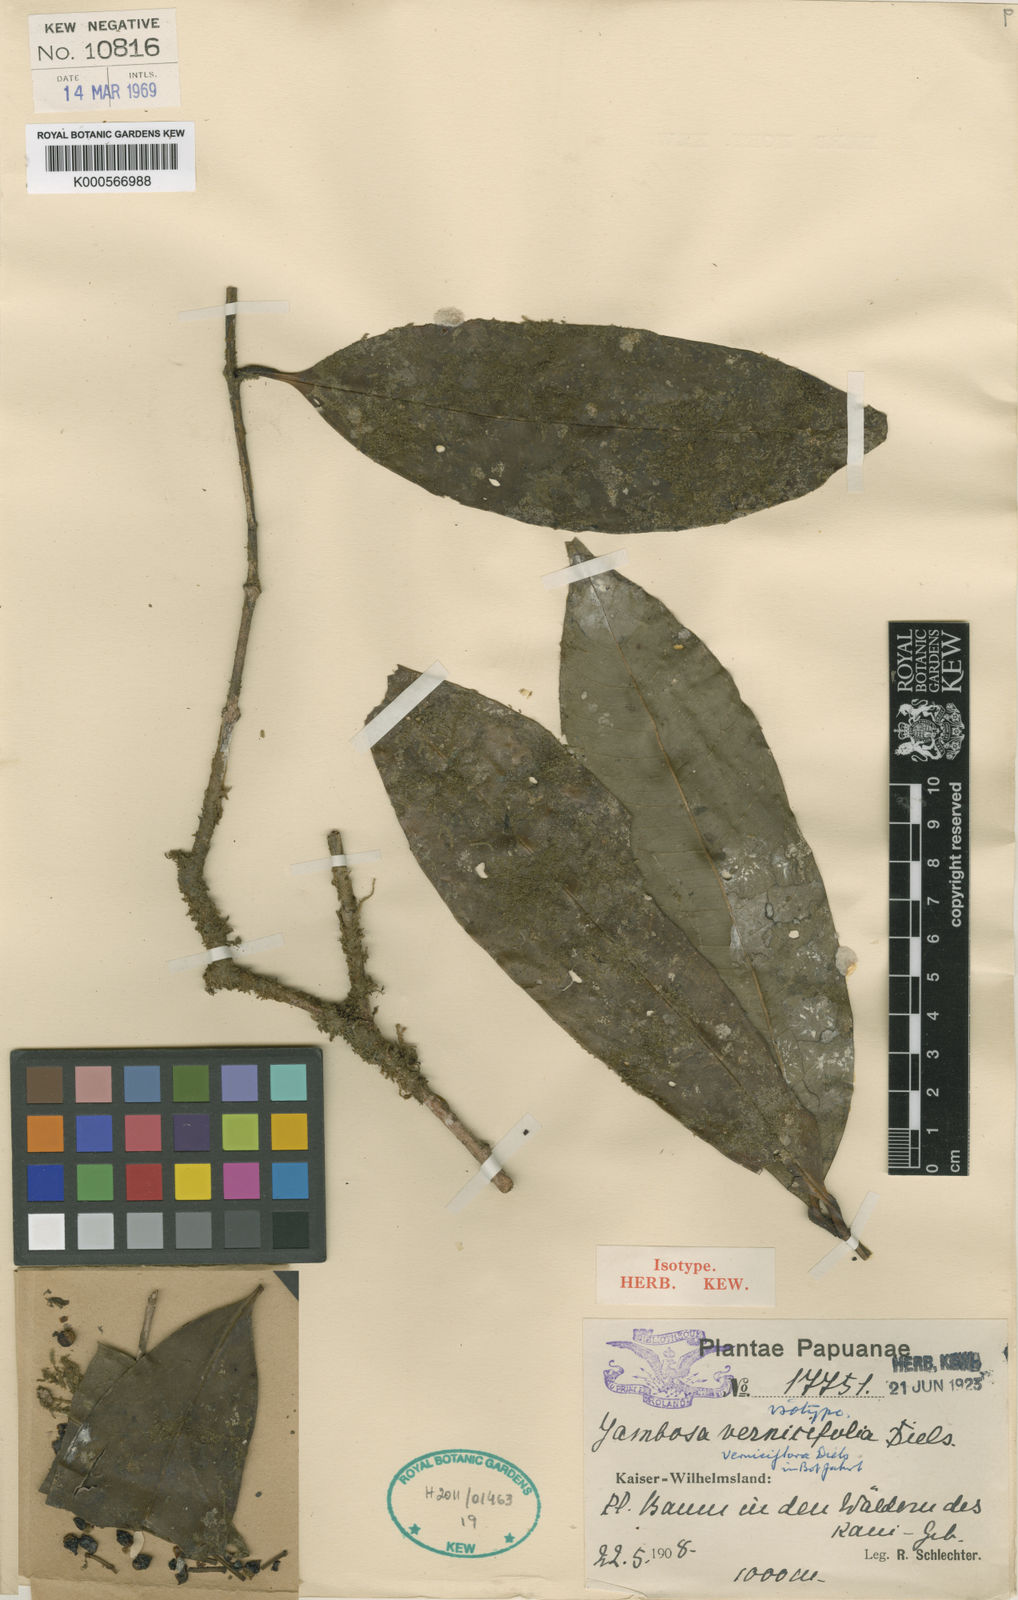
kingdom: Plantae
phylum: Tracheophyta
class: Magnoliopsida
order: Myrtales
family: Myrtaceae
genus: Syzygium
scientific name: Syzygium verniciflorum
